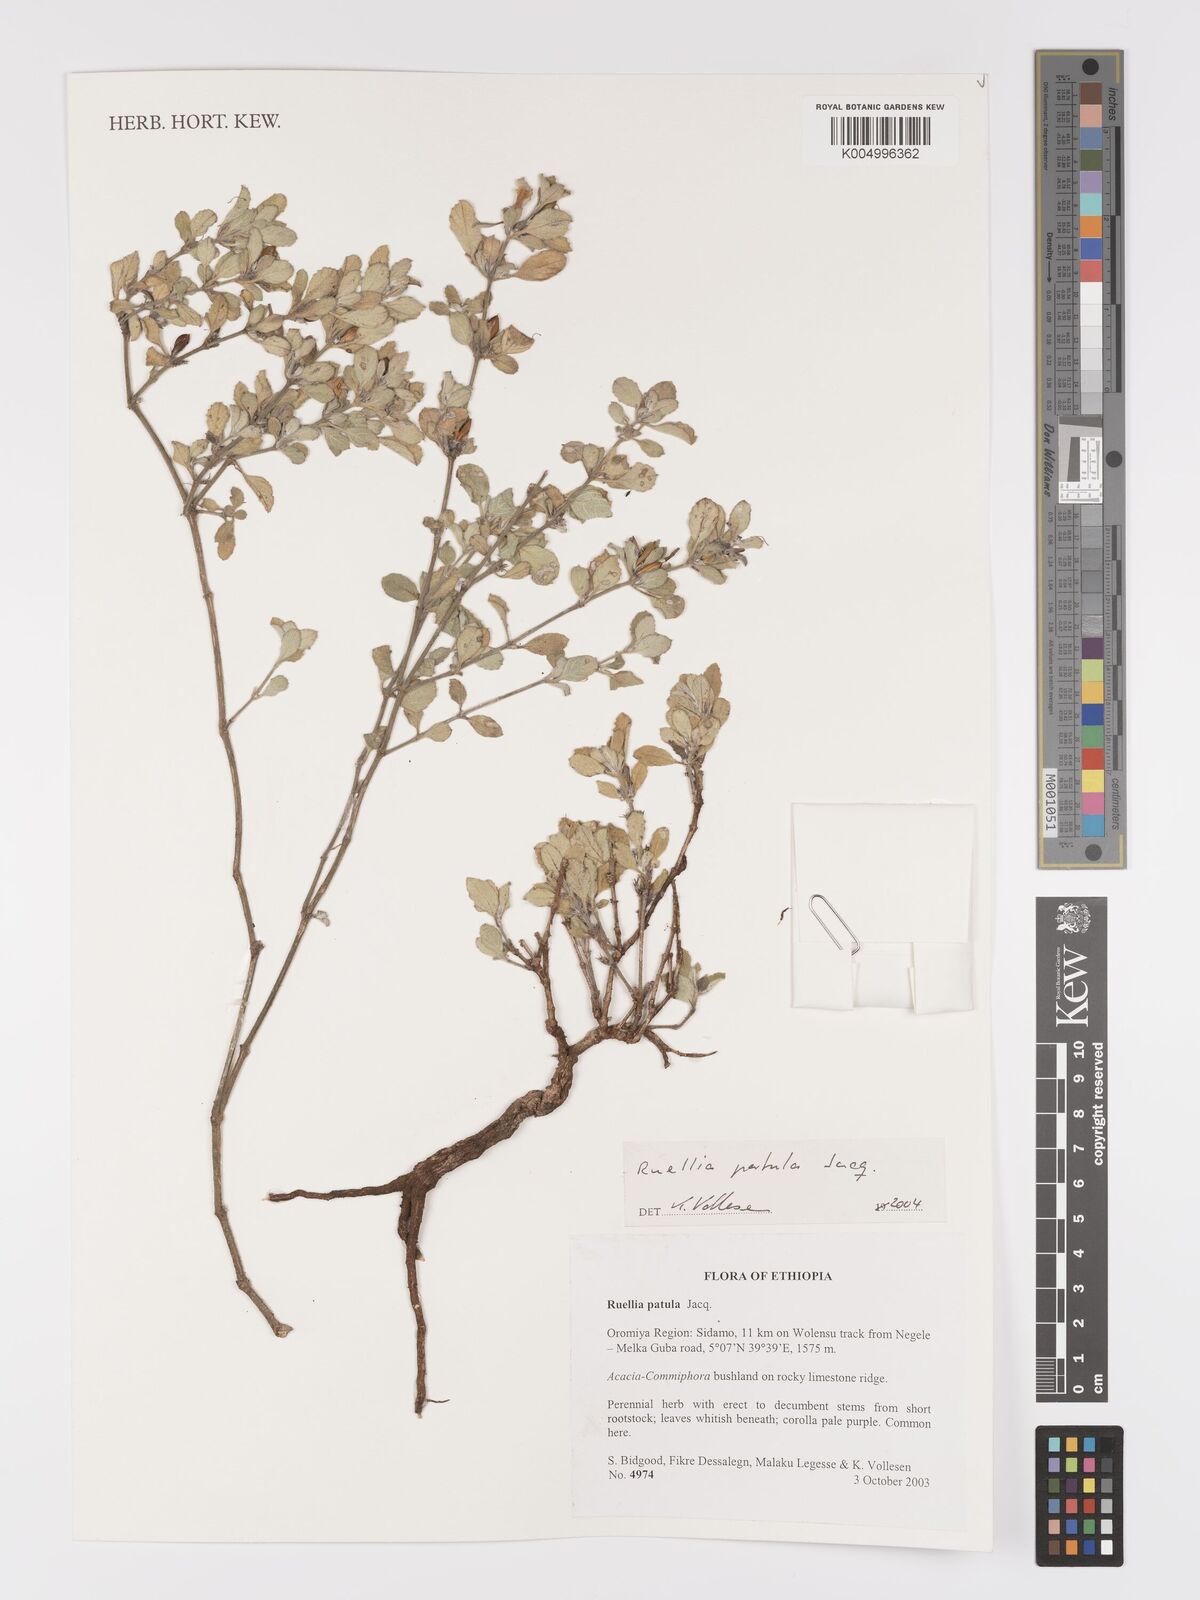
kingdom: Plantae
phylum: Tracheophyta
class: Magnoliopsida
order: Lamiales
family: Acanthaceae
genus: Ruellia
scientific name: Ruellia patula
